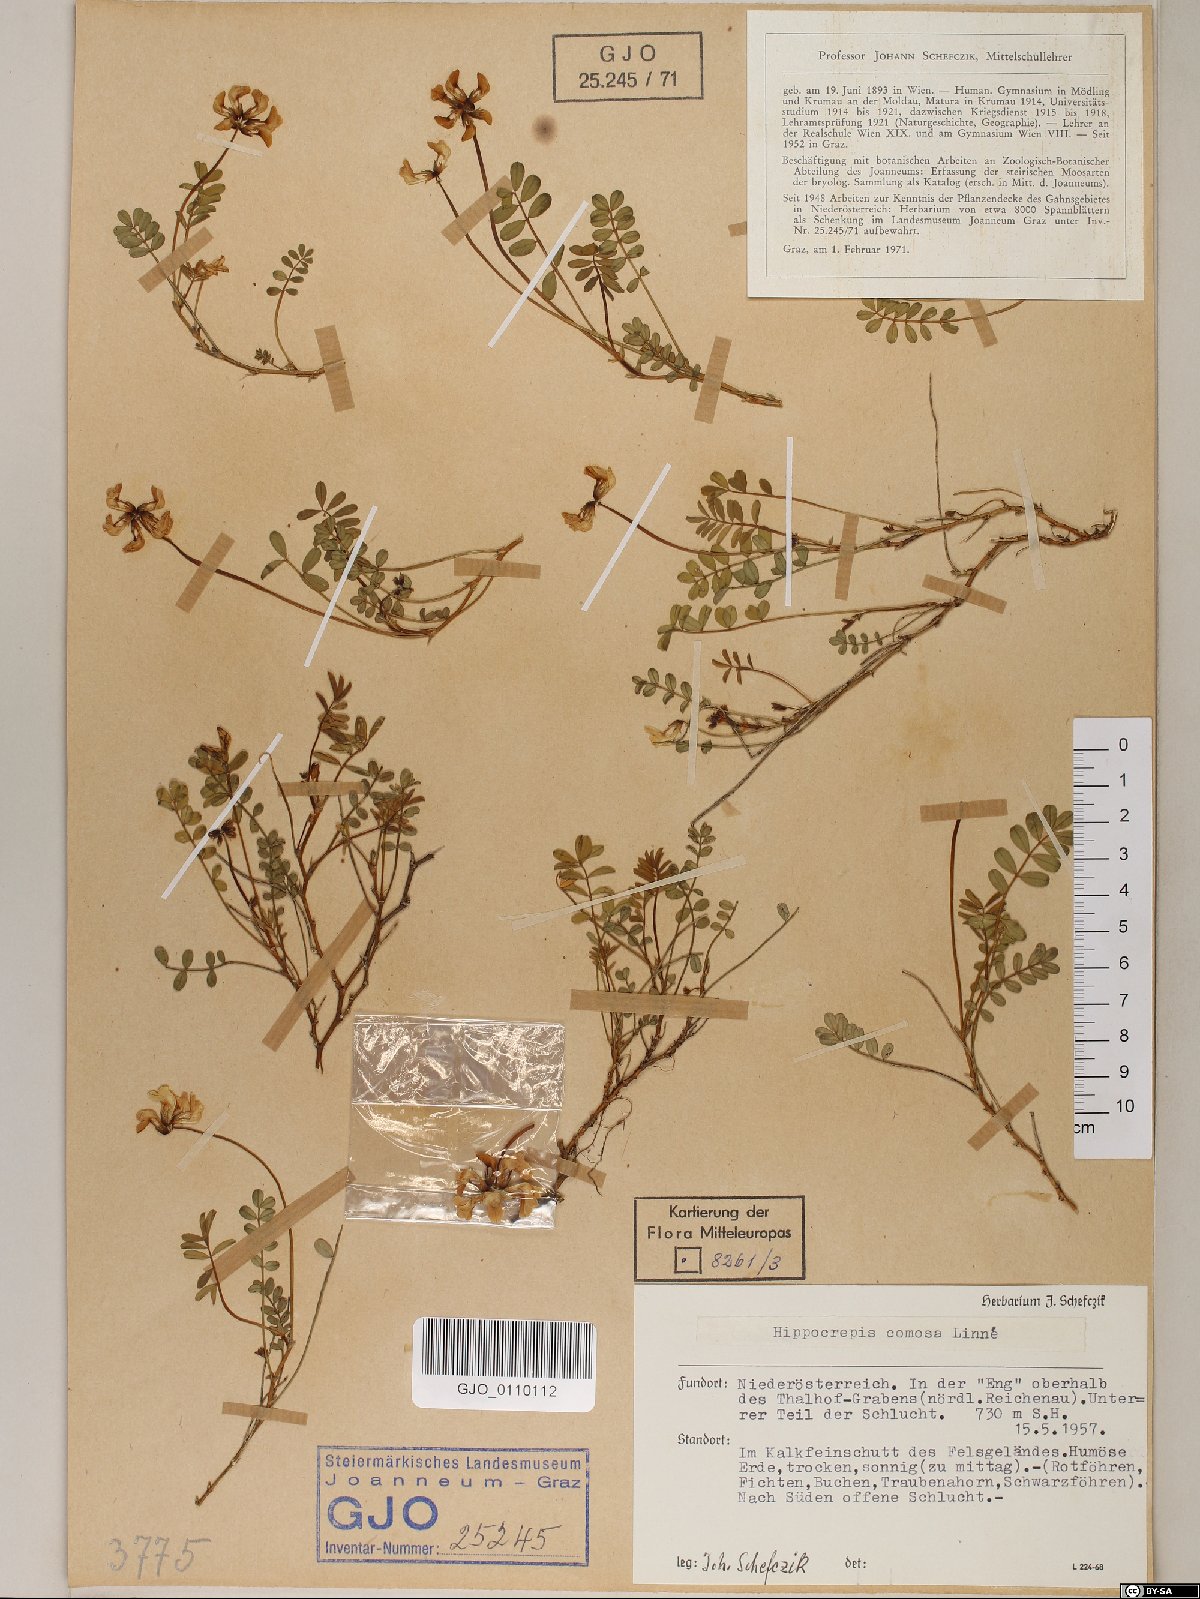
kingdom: Plantae
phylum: Tracheophyta
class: Magnoliopsida
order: Fabales
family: Fabaceae
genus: Hippocrepis
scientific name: Hippocrepis comosa
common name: Horseshoe vetch
